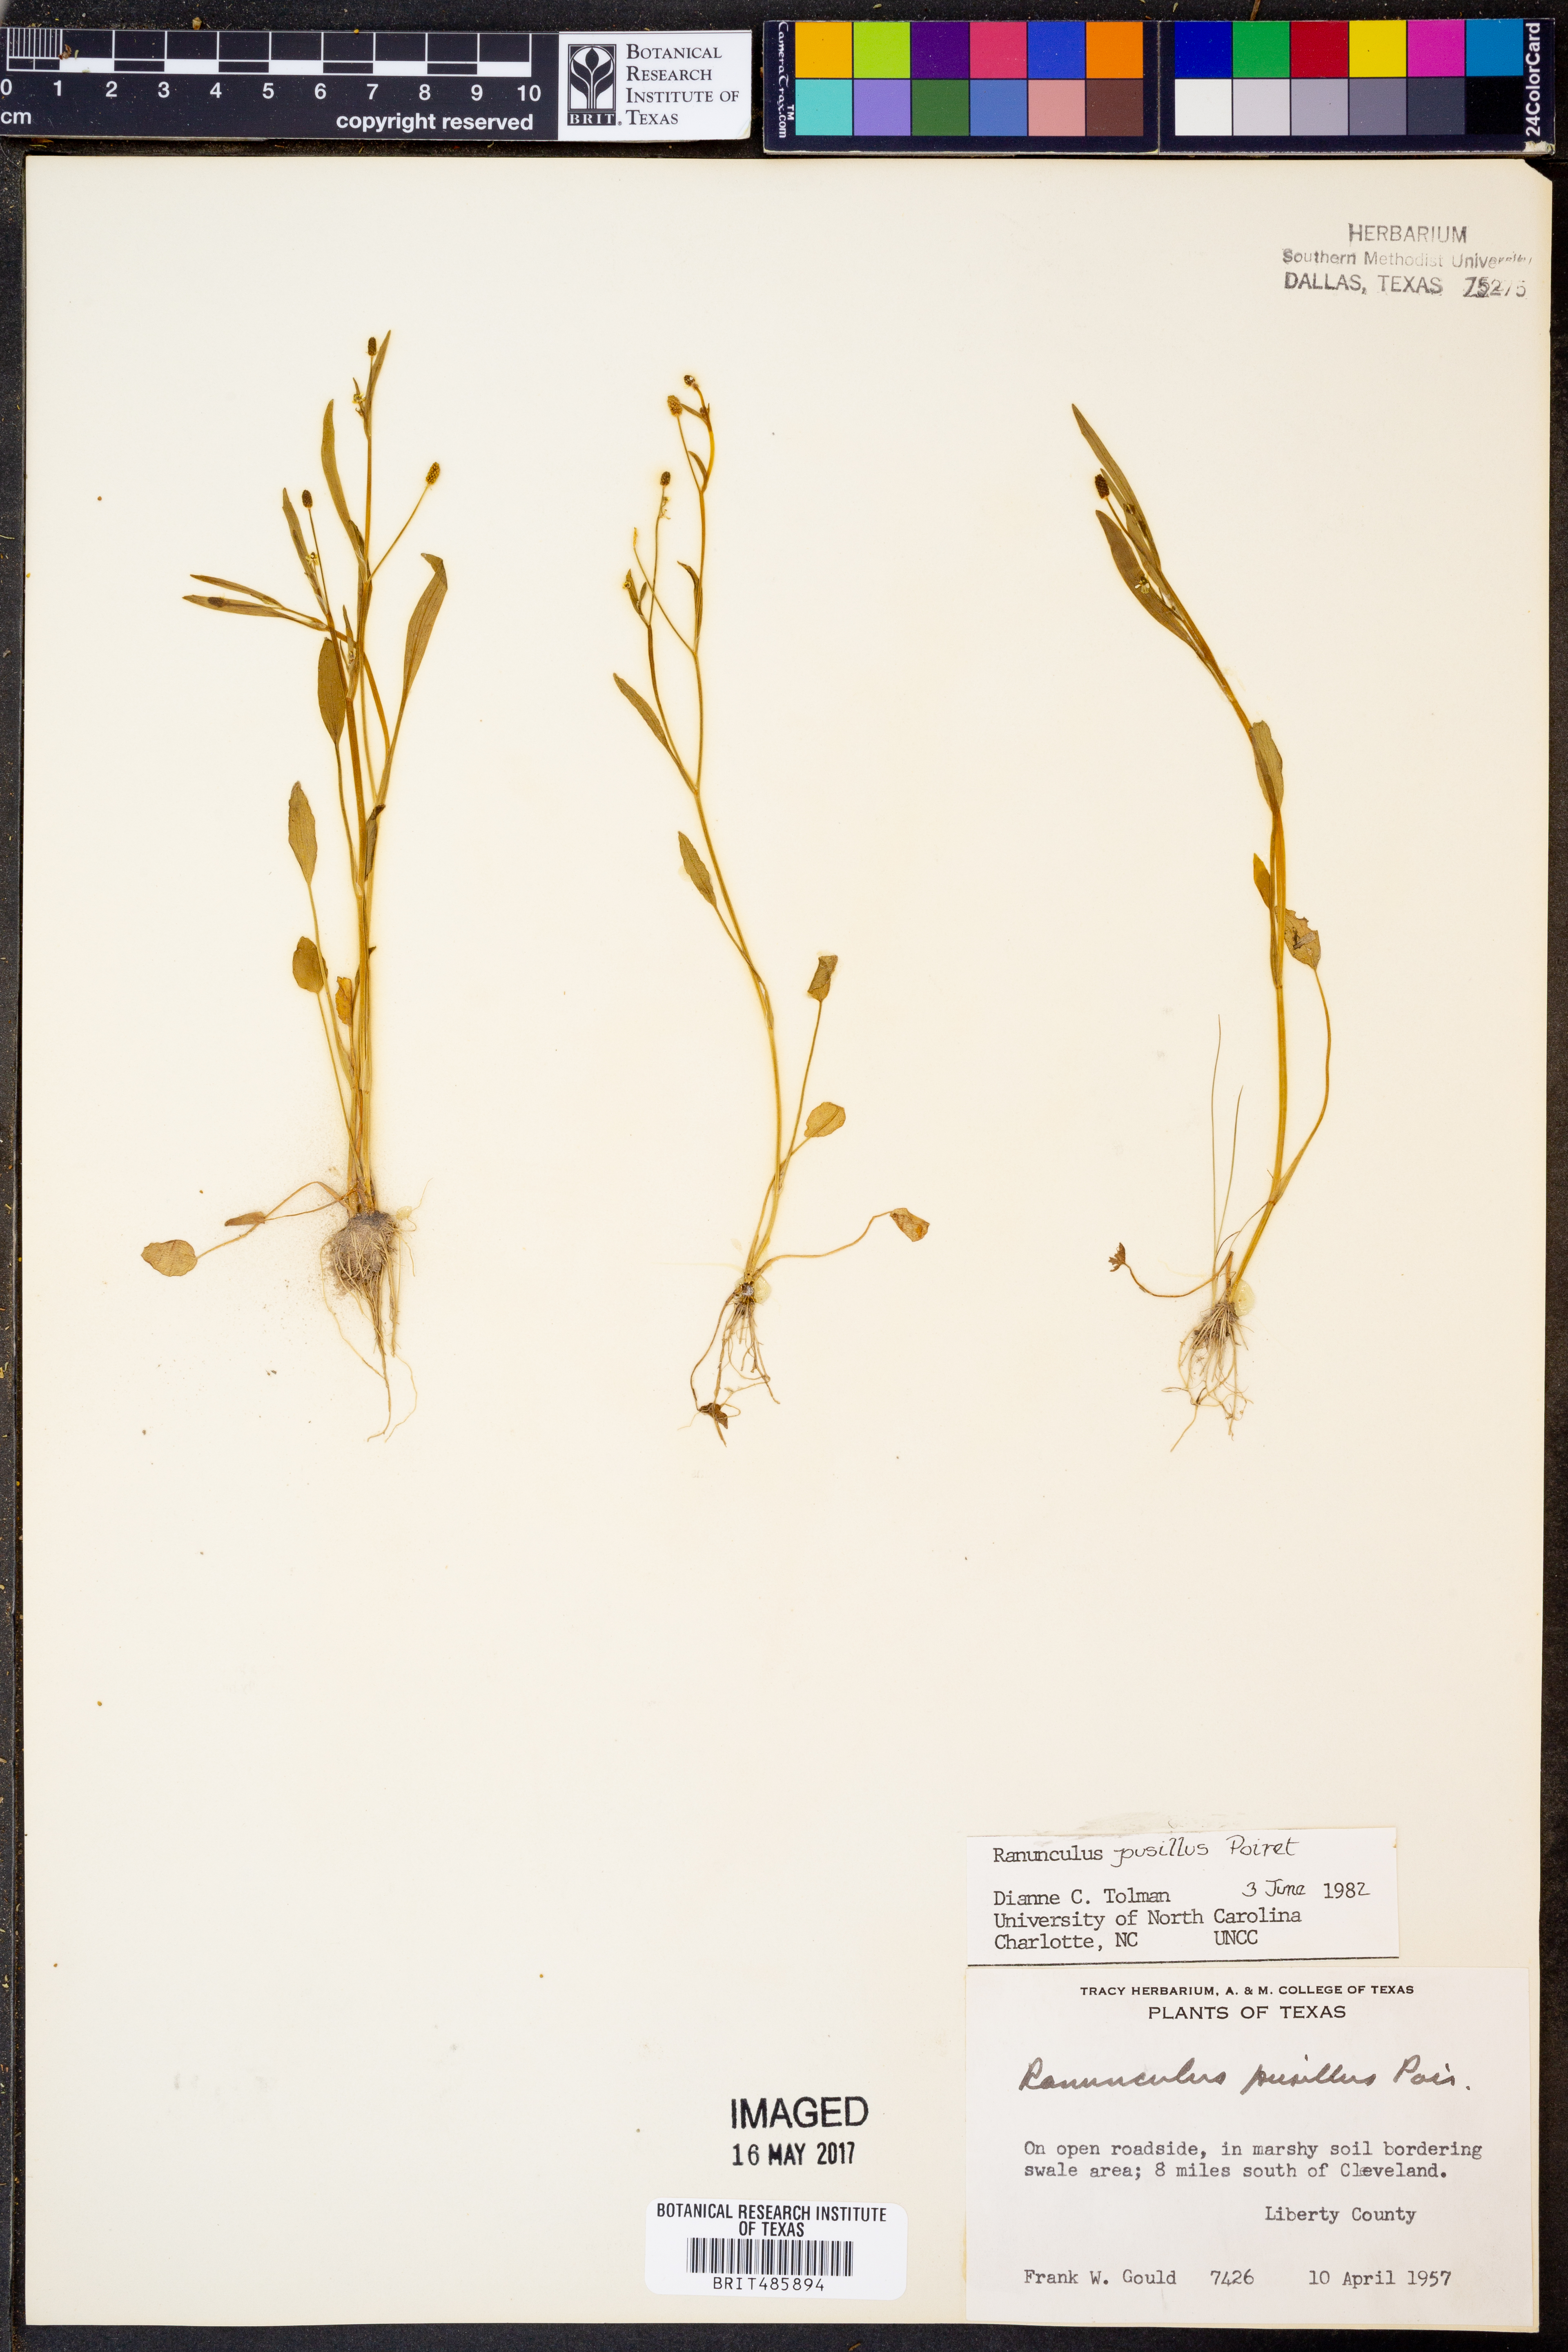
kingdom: Plantae
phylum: Tracheophyta
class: Magnoliopsida
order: Ranunculales
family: Ranunculaceae
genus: Ranunculus
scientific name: Ranunculus pusillus
